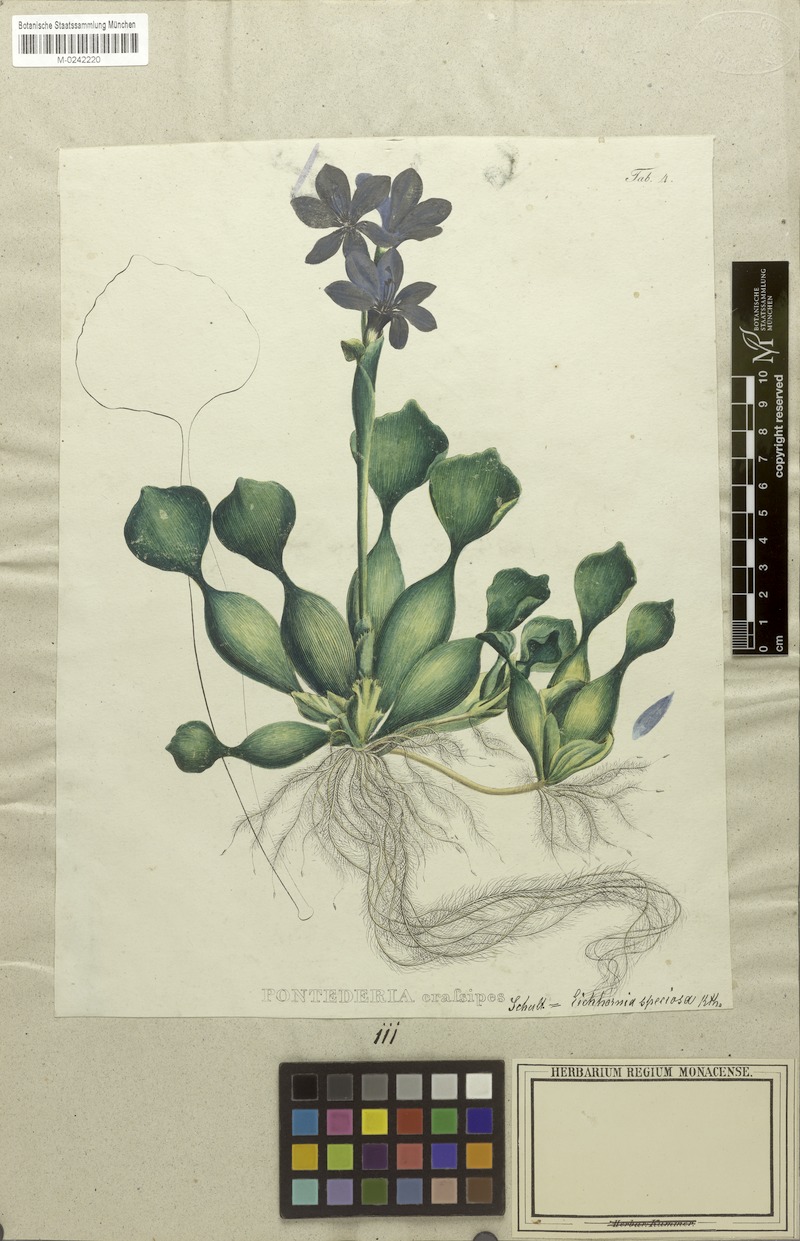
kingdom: Plantae
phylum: Tracheophyta
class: Liliopsida
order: Commelinales
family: Pontederiaceae
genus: Pontederia
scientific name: Pontederia crassipes
